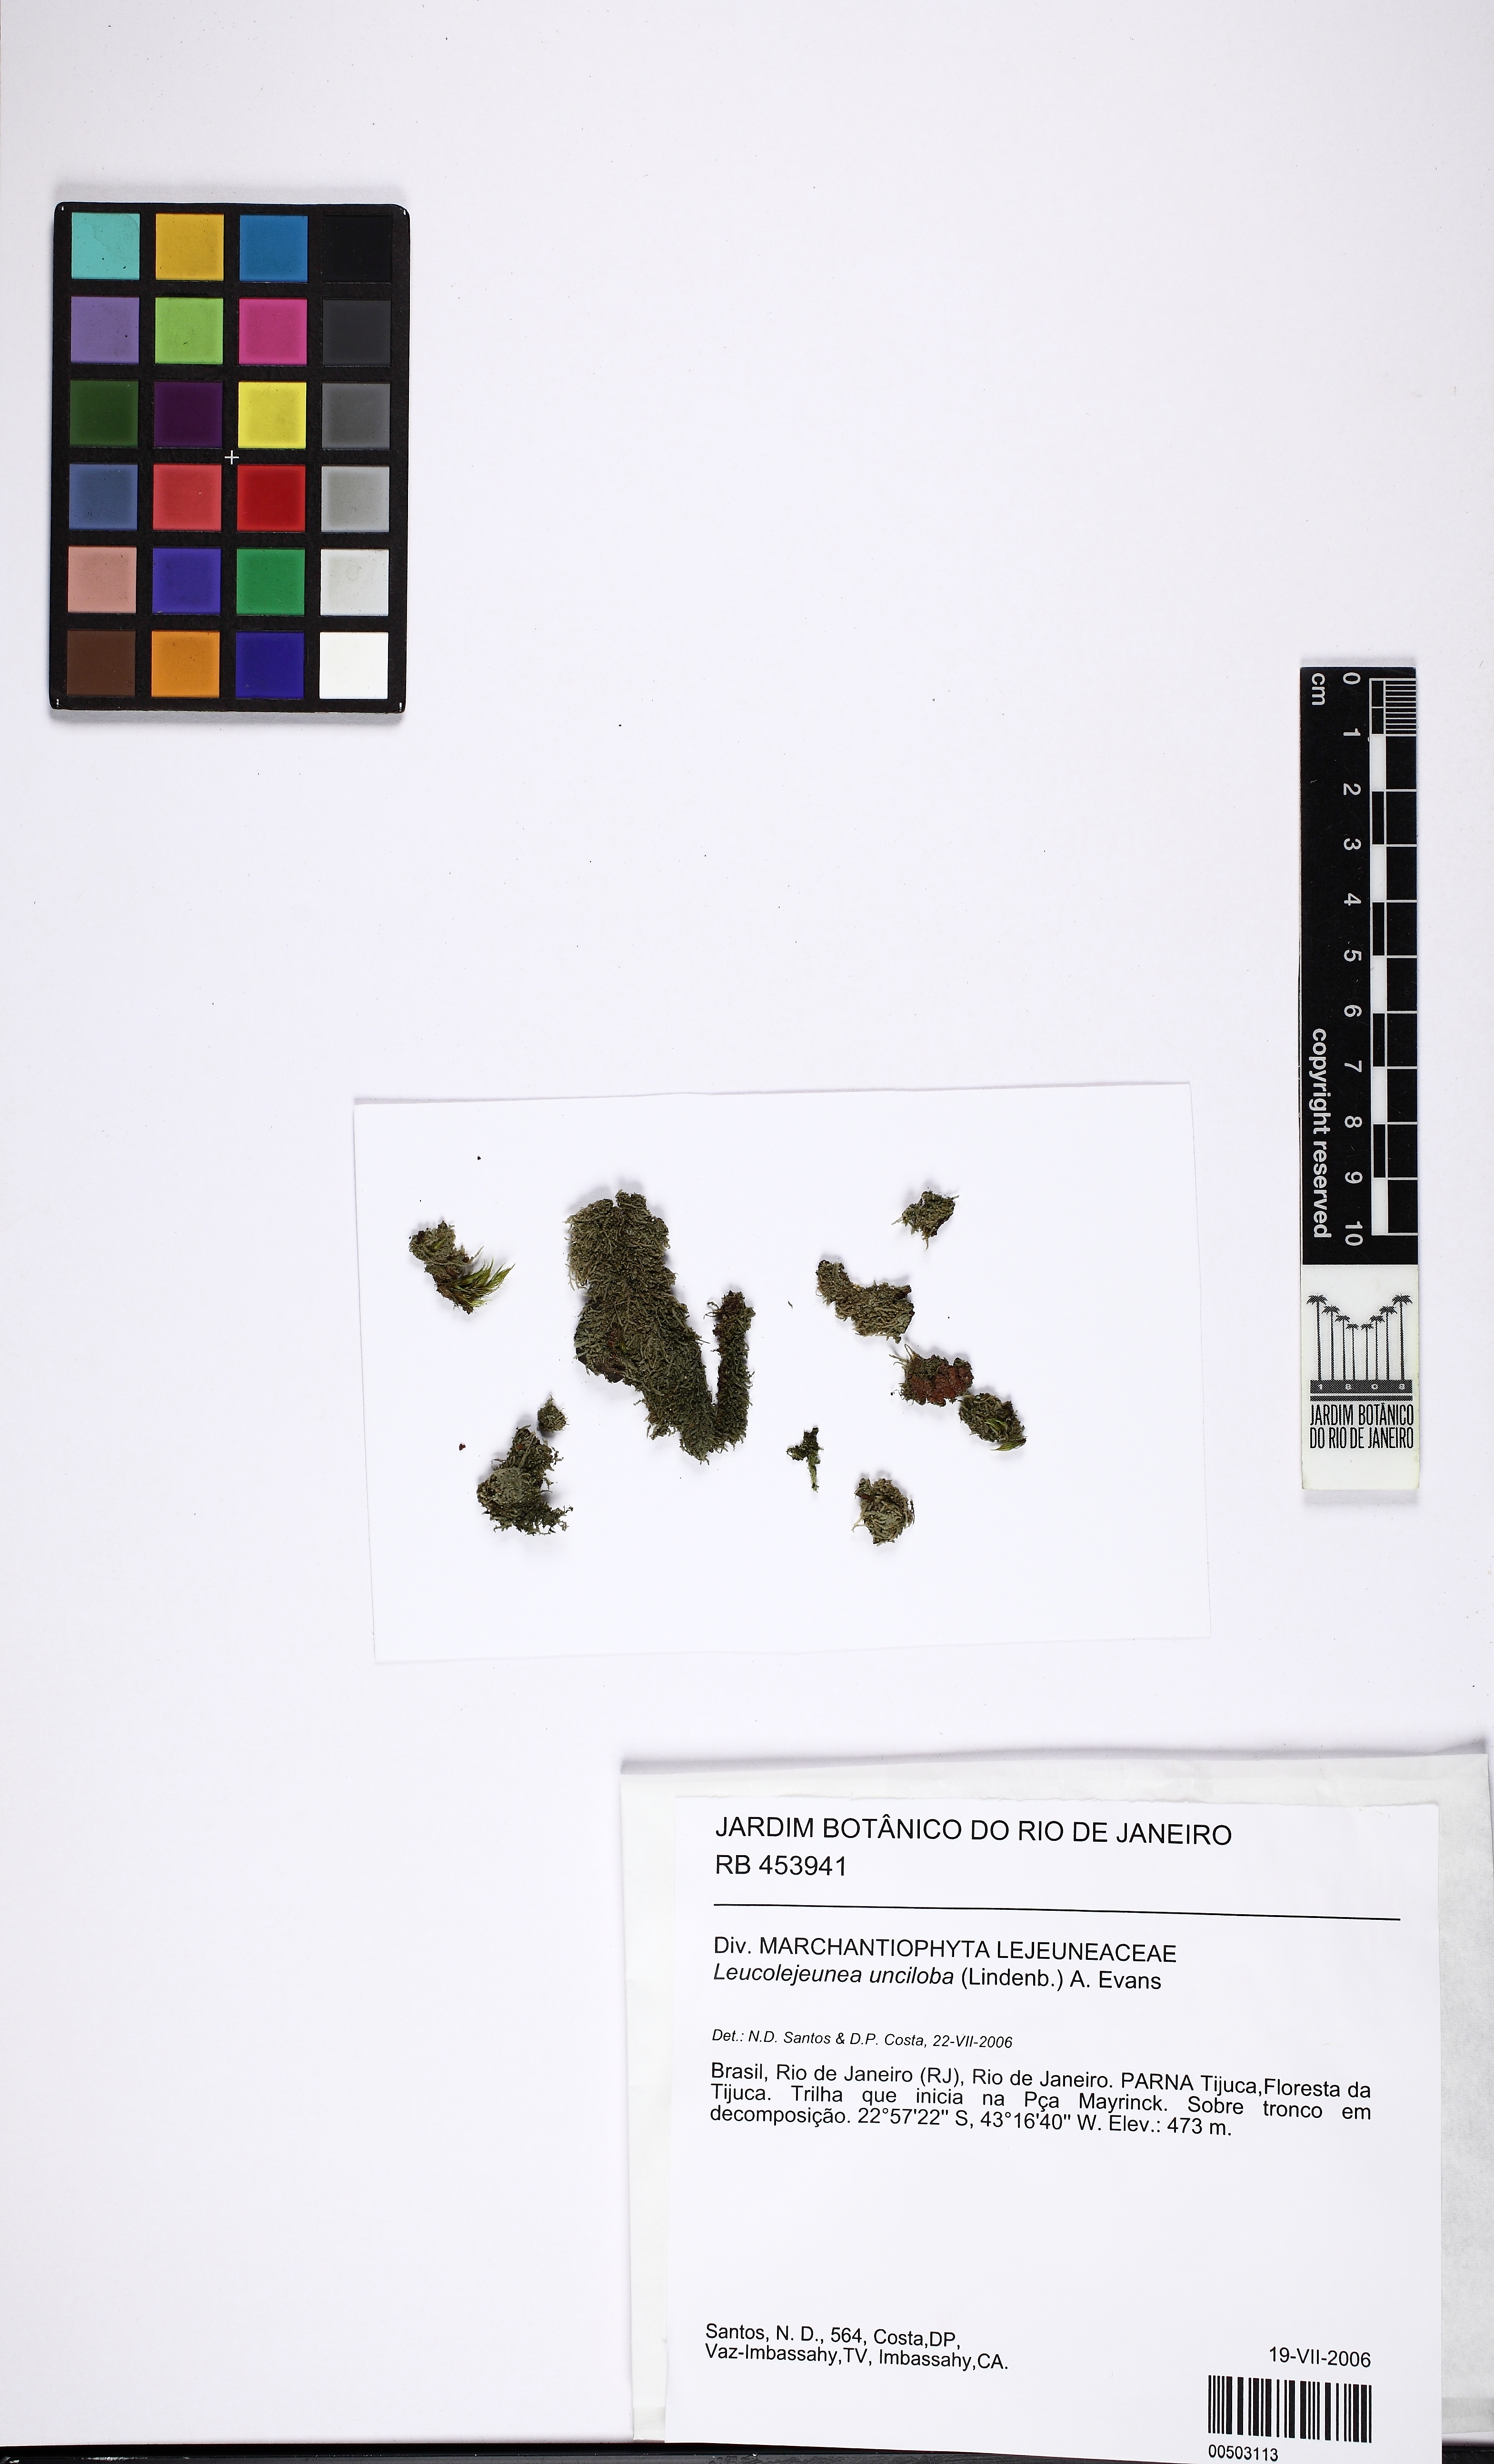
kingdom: Plantae
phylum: Marchantiophyta
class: Jungermanniopsida
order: Porellales
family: Lejeuneaceae
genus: Cheilolejeunea
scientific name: Cheilolejeunea unciloba
